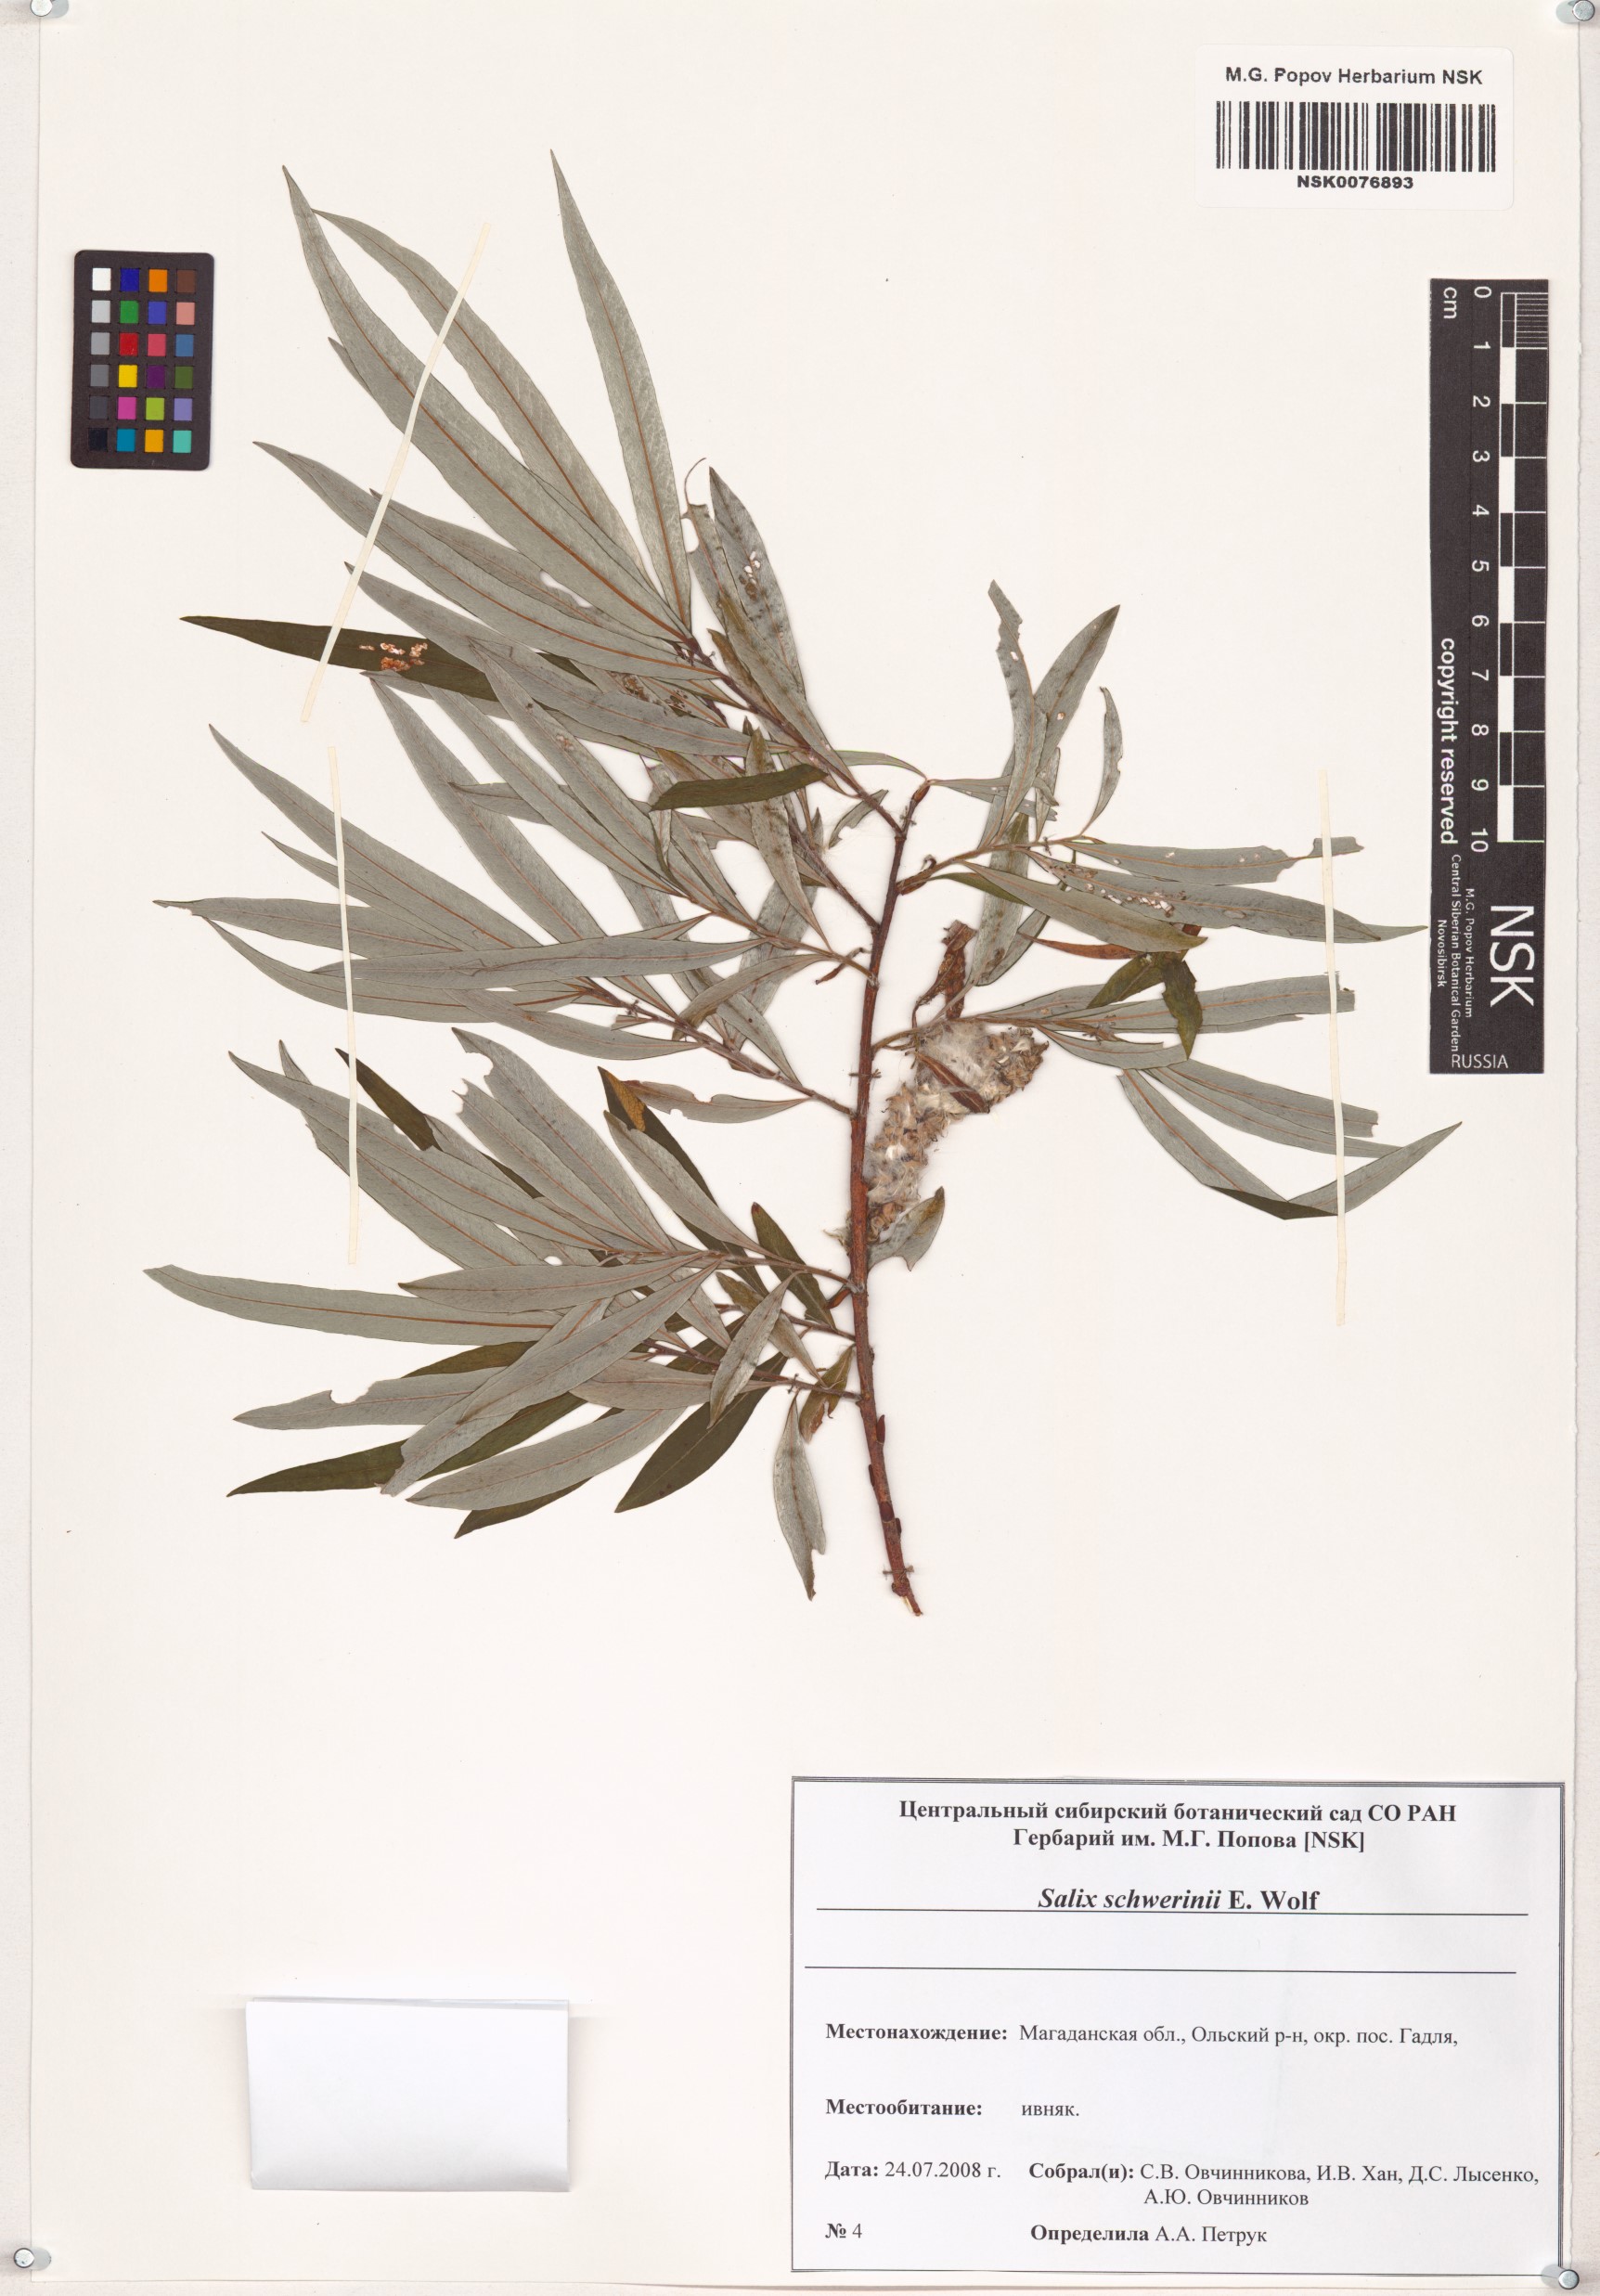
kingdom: Plantae
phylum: Tracheophyta
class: Magnoliopsida
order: Malpighiales
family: Salicaceae
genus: Salix
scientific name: Salix schwerinii
